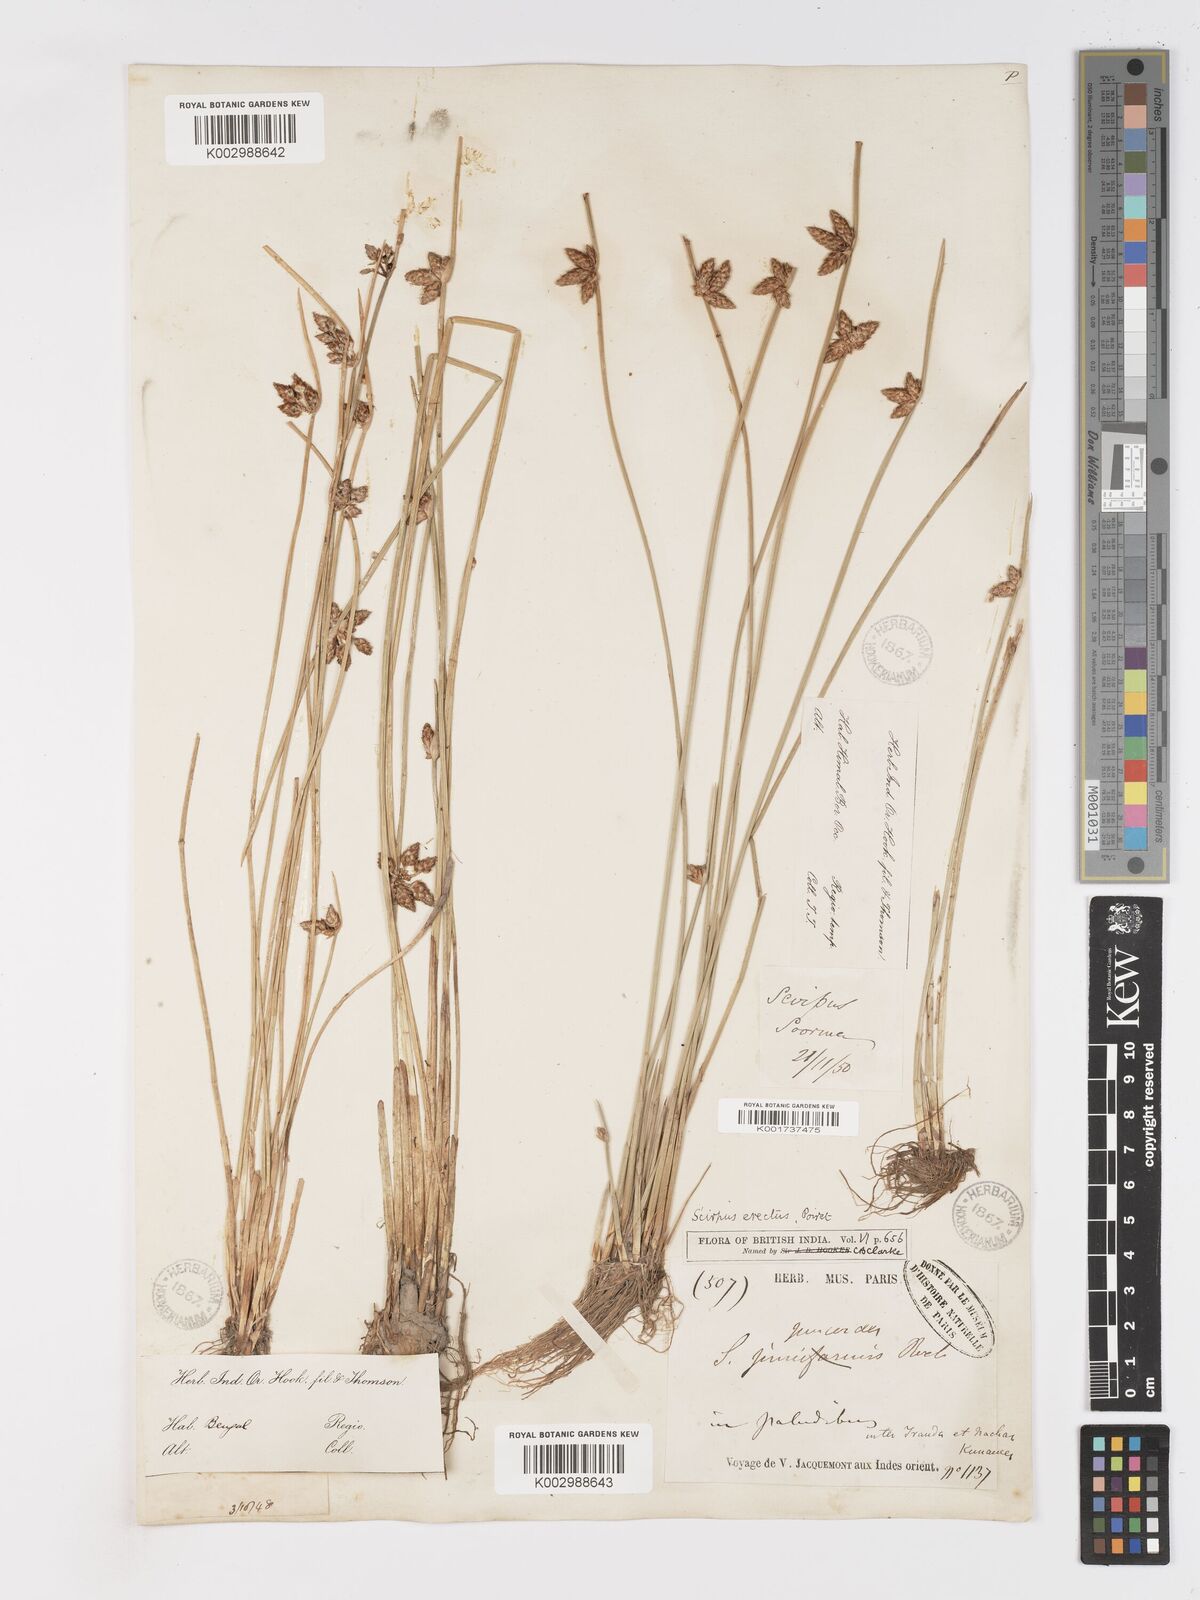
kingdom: Plantae
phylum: Tracheophyta
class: Liliopsida
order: Poales
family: Cyperaceae
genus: Schoenoplectiella
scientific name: Schoenoplectiella juncoides
